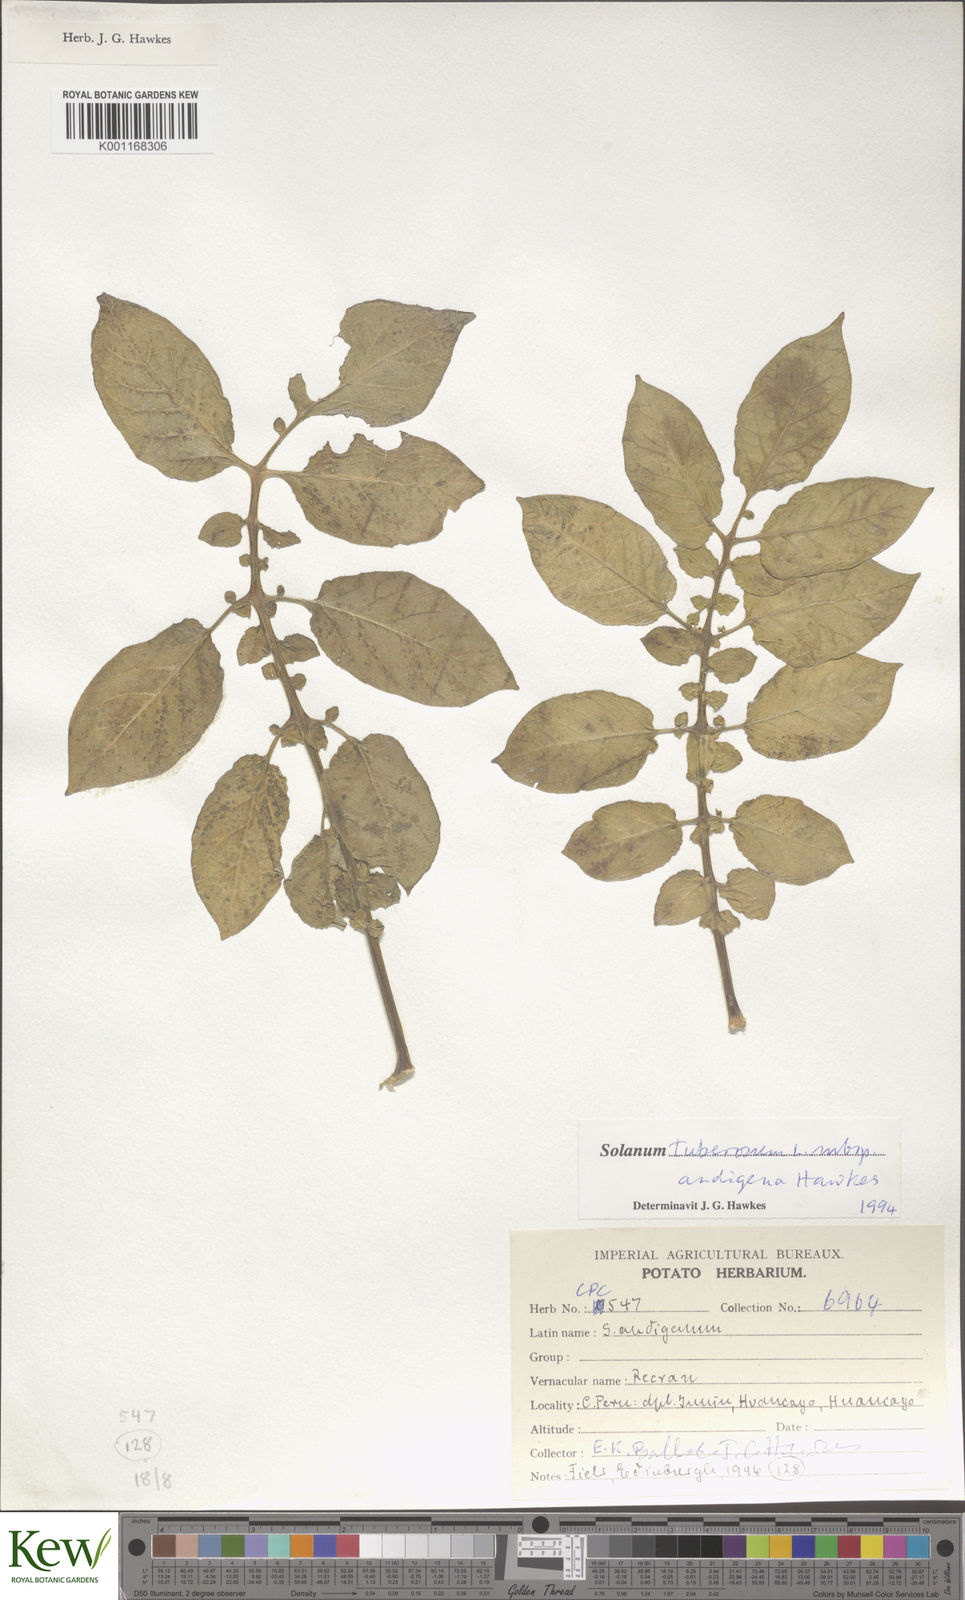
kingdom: Plantae
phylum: Tracheophyta
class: Magnoliopsida
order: Solanales
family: Solanaceae
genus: Solanum
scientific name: Solanum tuberosum
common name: Potato
